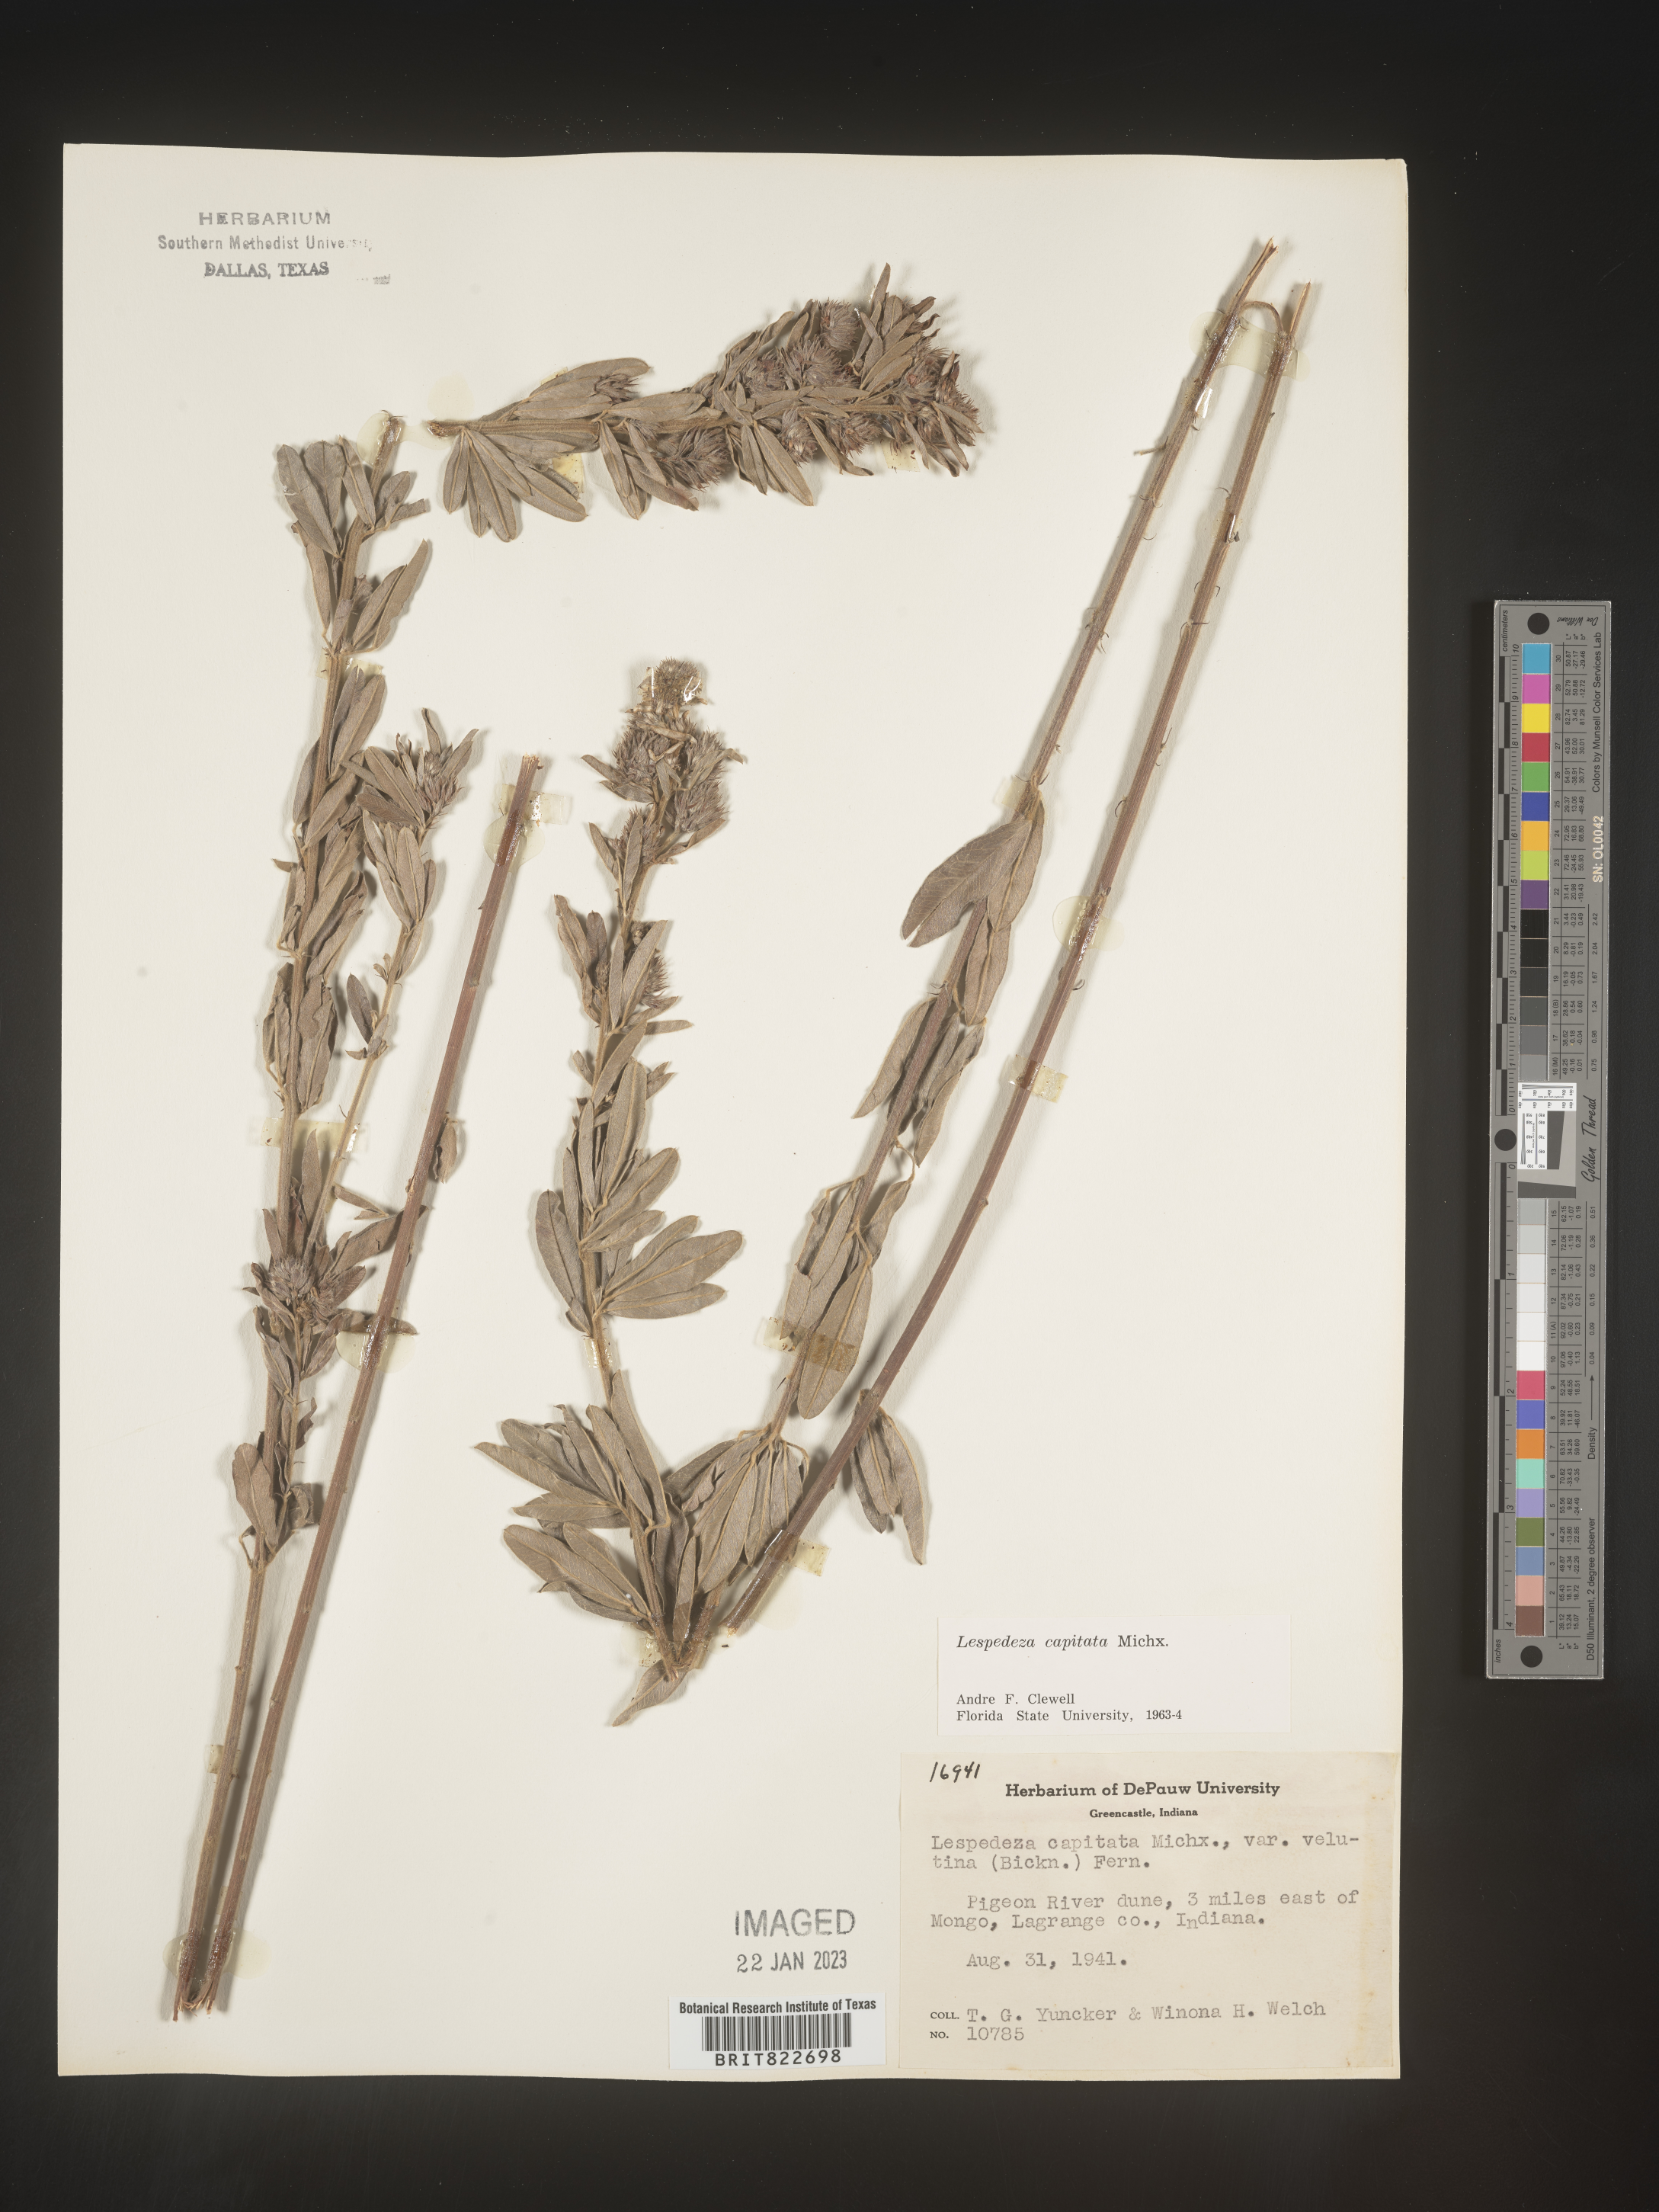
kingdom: Plantae
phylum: Tracheophyta
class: Magnoliopsida
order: Fabales
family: Fabaceae
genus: Lespedeza
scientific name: Lespedeza capitata
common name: Dusty clover
